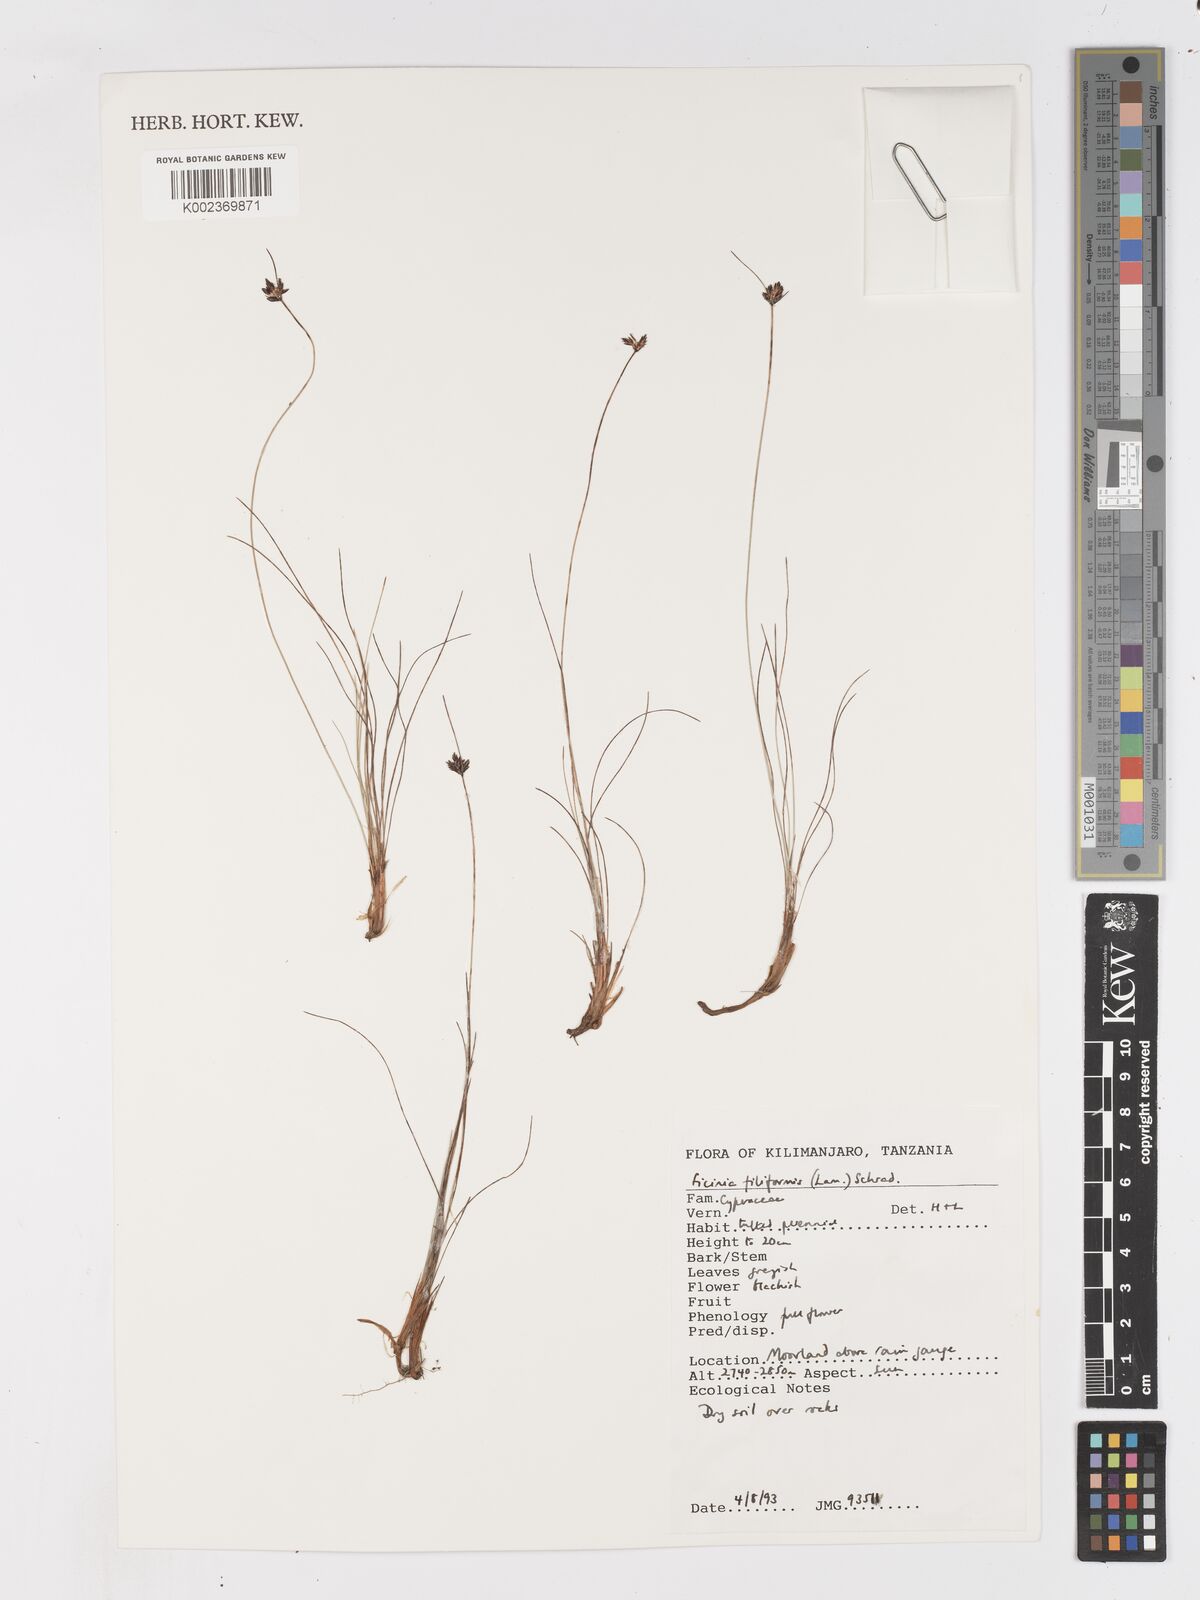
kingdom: Plantae
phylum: Tracheophyta
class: Liliopsida
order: Poales
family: Cyperaceae
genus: Ficinia
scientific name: Ficinia filiformis
